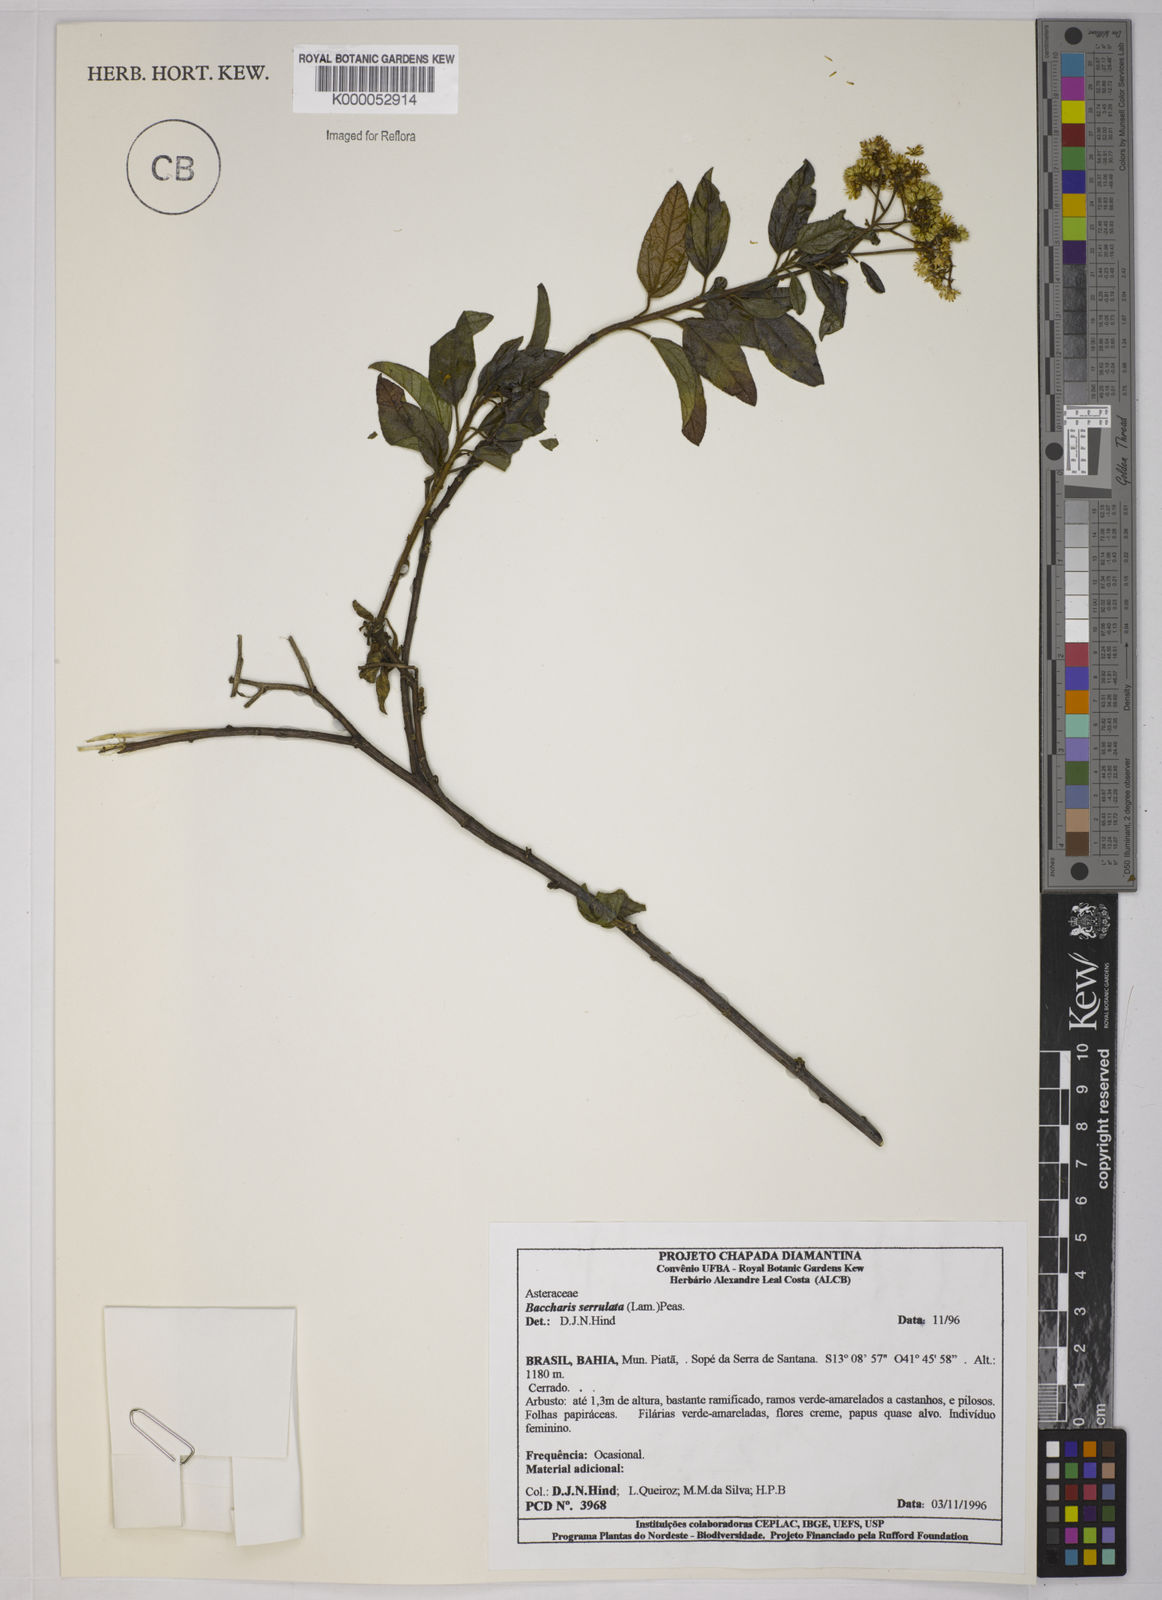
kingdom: Plantae
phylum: Tracheophyta
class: Magnoliopsida
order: Asterales
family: Asteraceae
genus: Baccharis
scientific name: Baccharis serrulata
